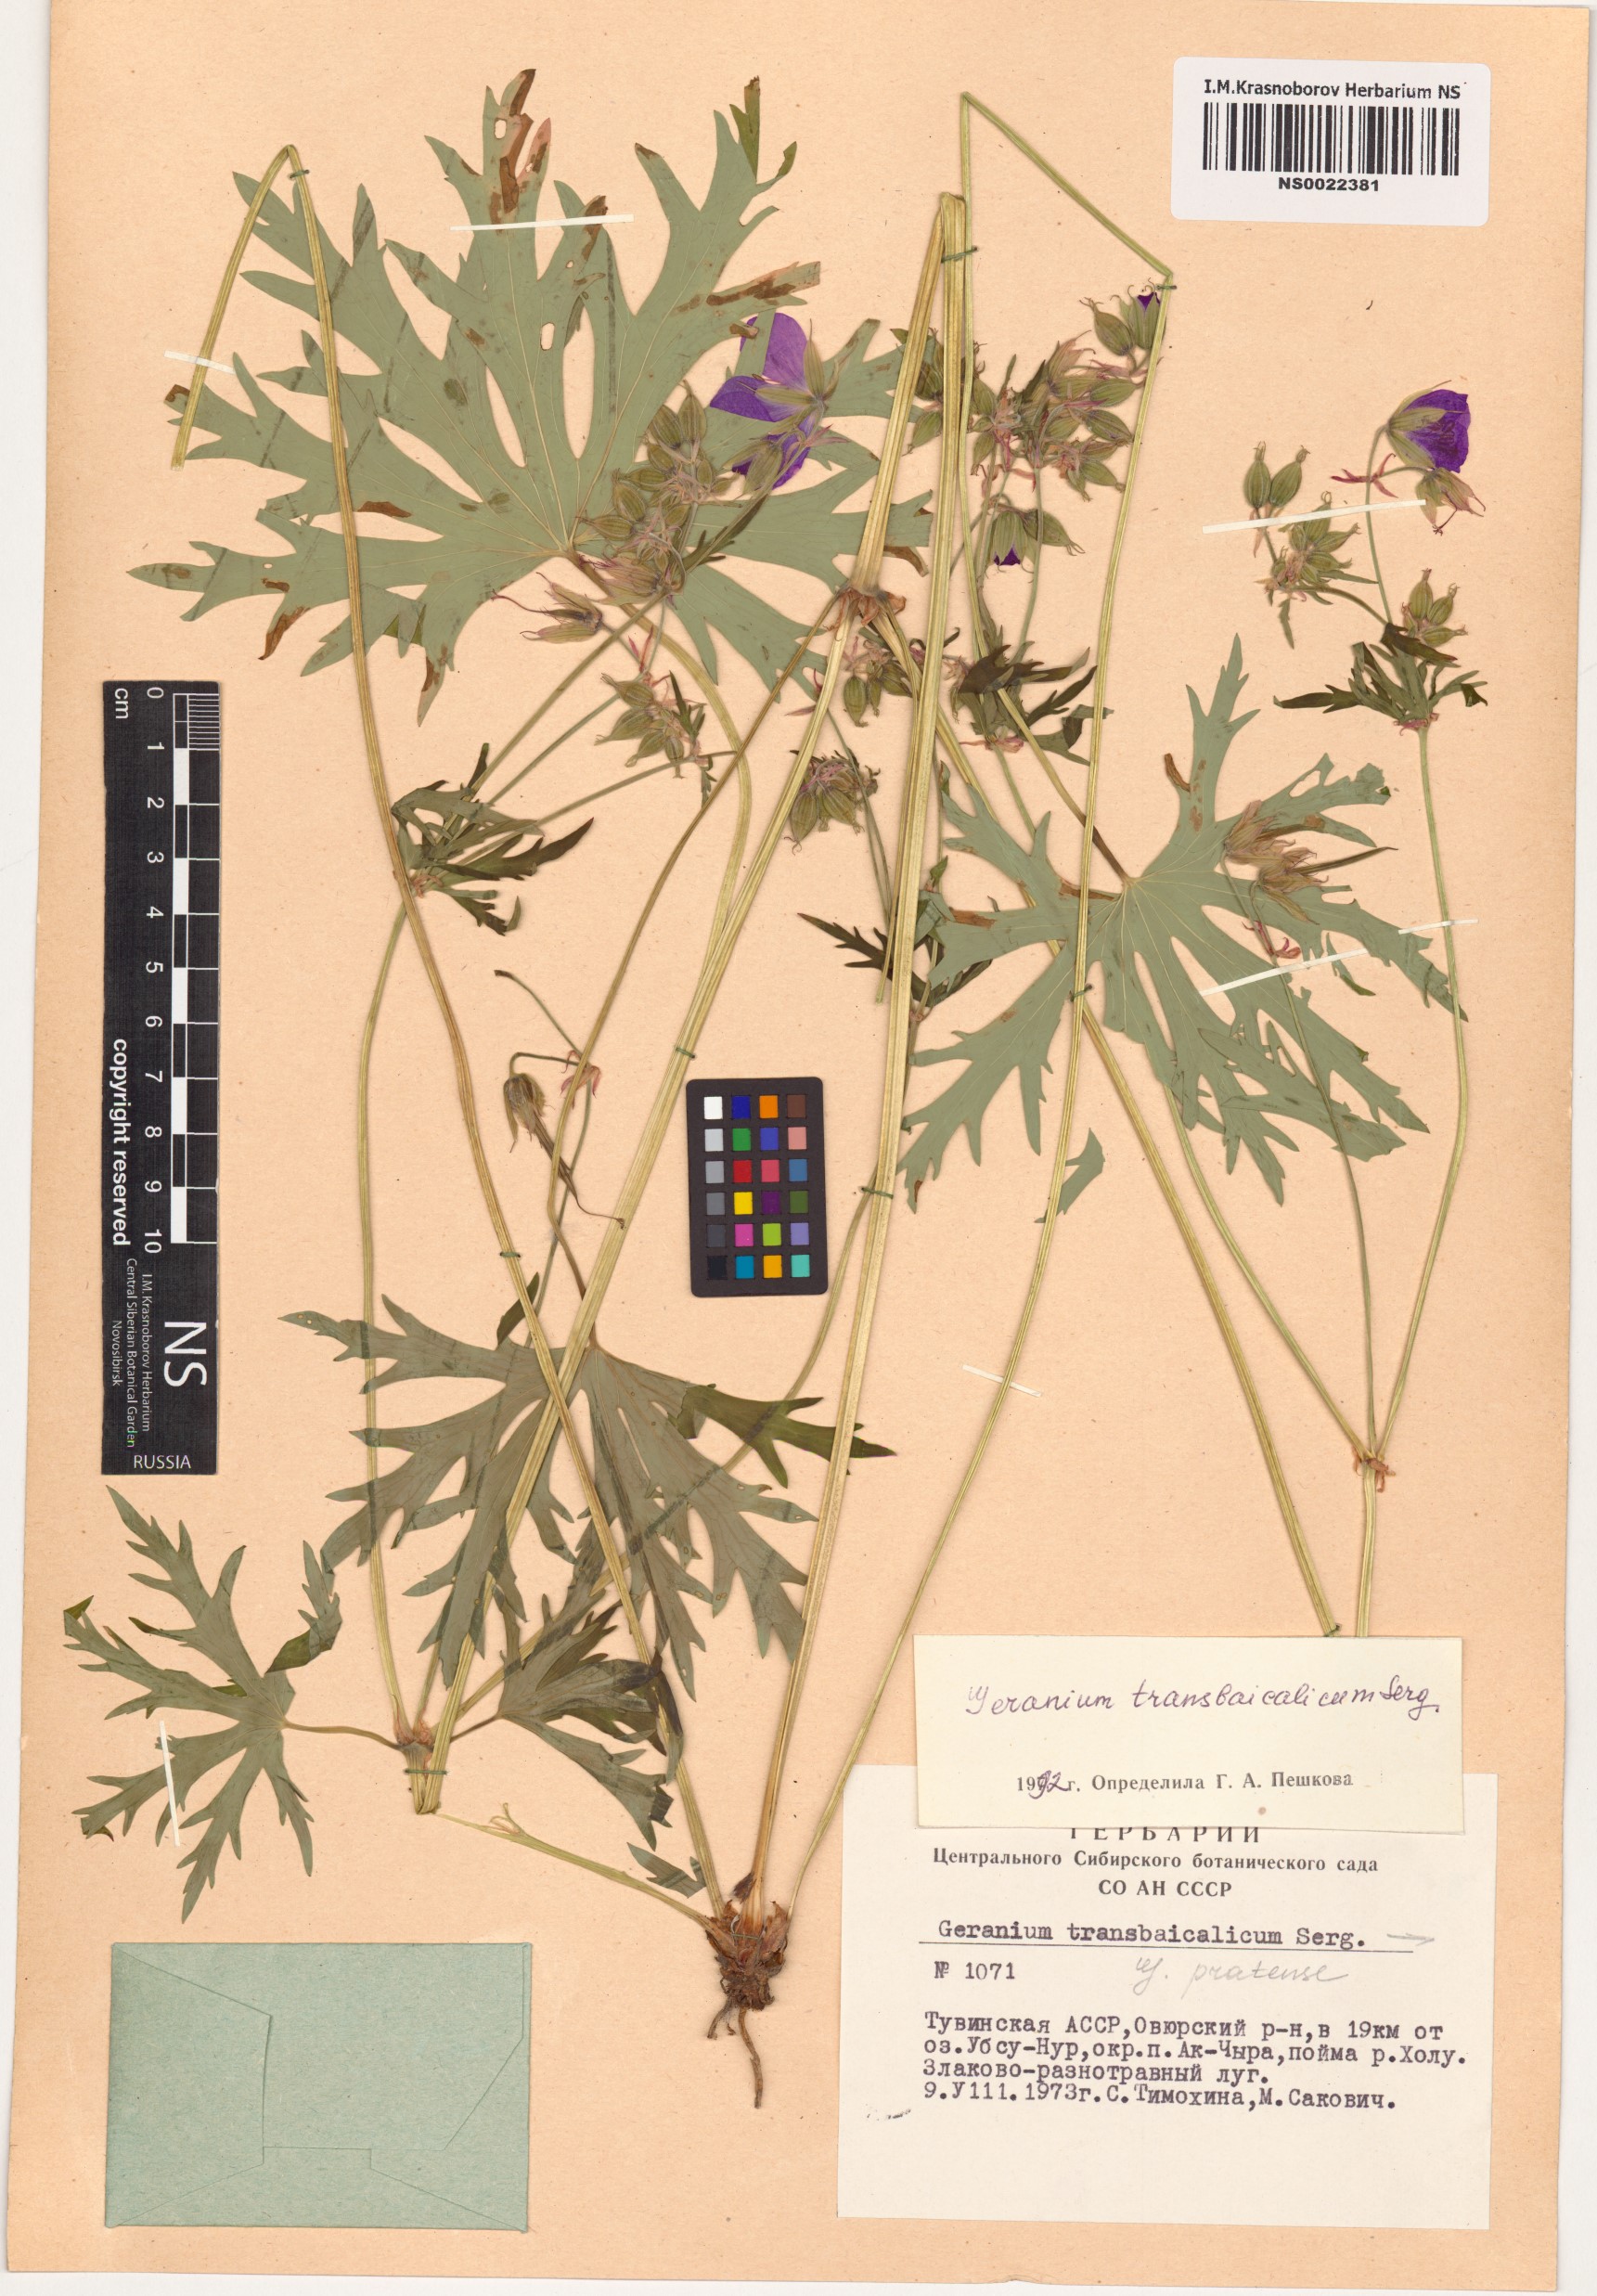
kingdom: Plantae
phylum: Tracheophyta
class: Magnoliopsida
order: Geraniales
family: Geraniaceae
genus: Geranium
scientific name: Geranium pratense
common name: Meadow crane's-bill
